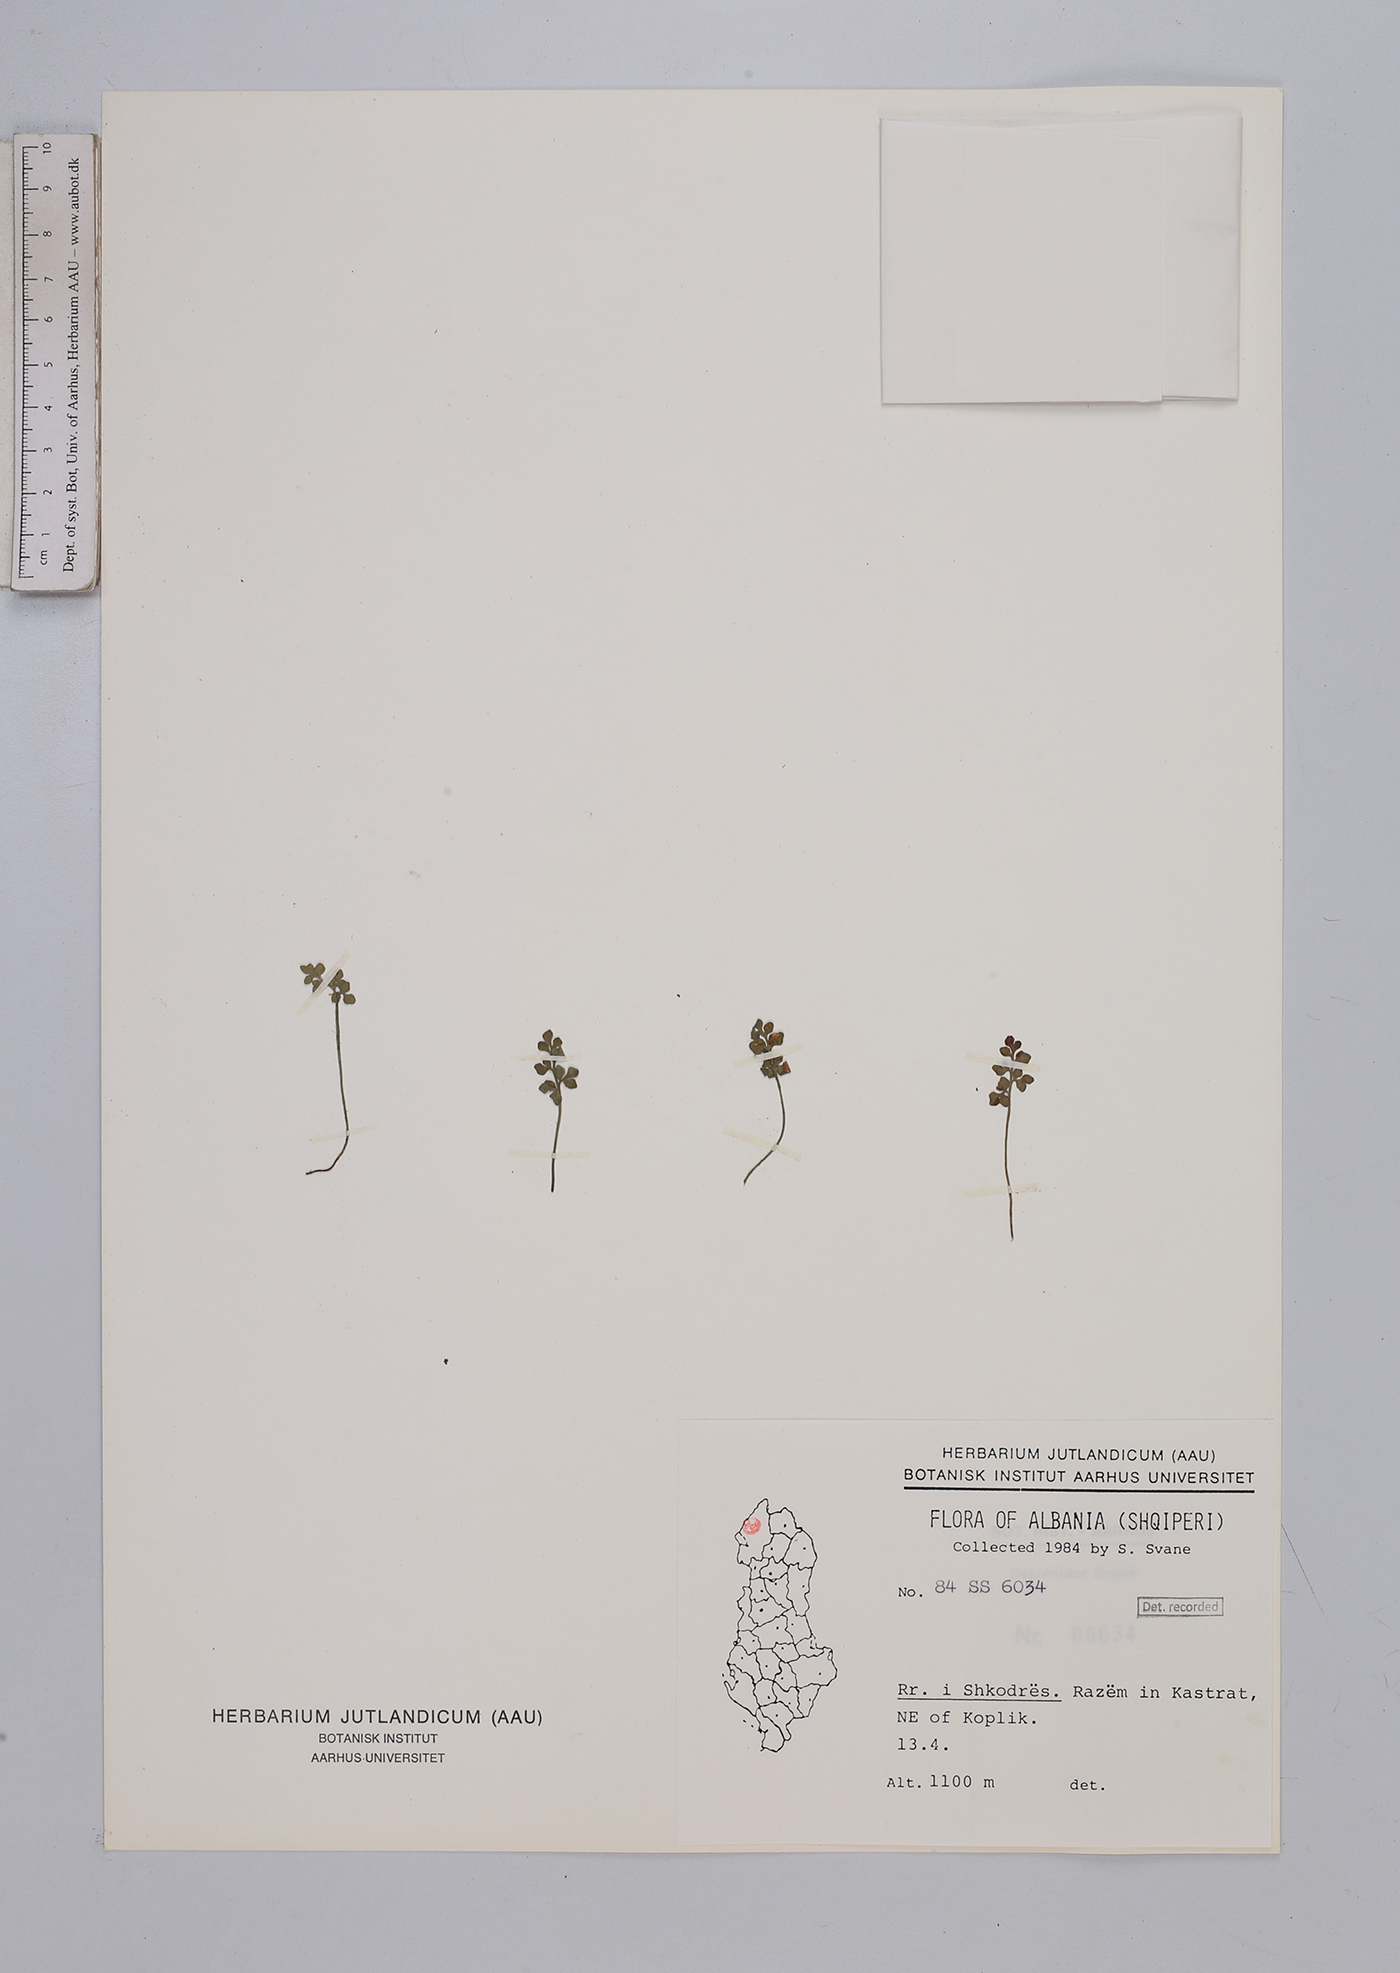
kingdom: Plantae
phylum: Tracheophyta
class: Polypodiopsida
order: Polypodiales
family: Aspleniaceae
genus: Asplenium
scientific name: Asplenium ruta-muraria
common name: Wall-rue
